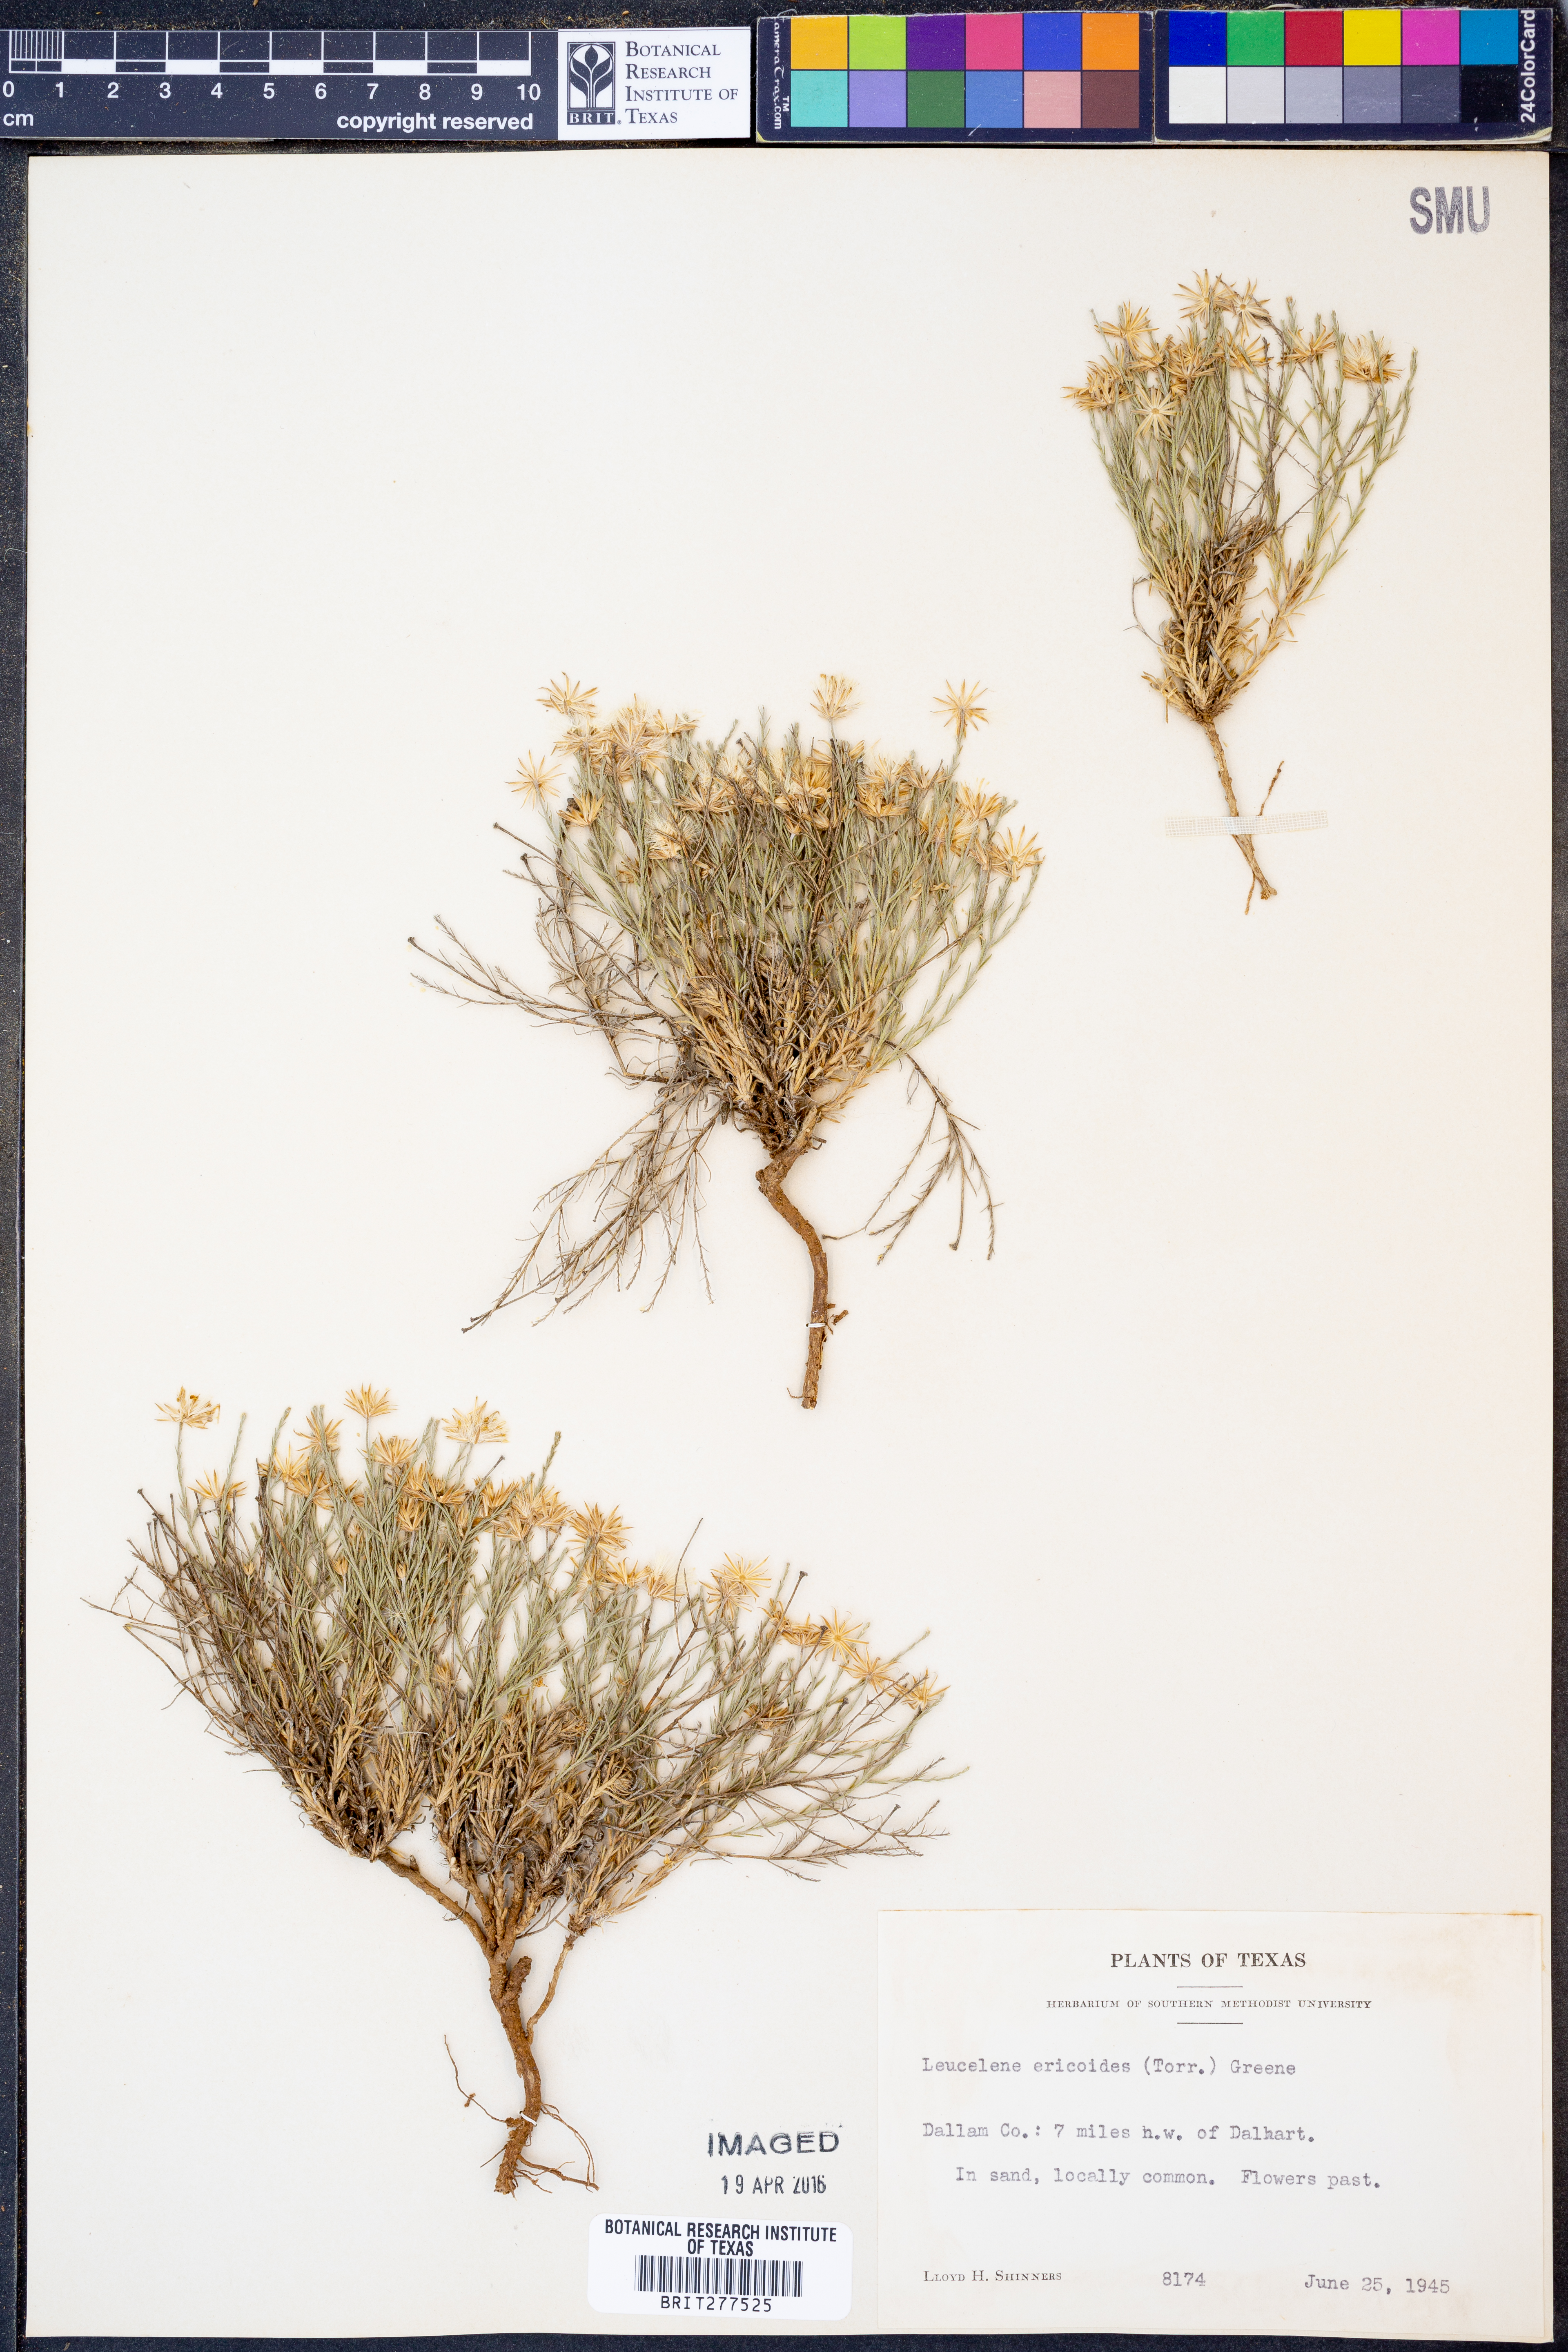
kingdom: Plantae
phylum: Tracheophyta
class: Magnoliopsida
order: Asterales
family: Asteraceae
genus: Chaetopappa
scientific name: Chaetopappa ericoides
